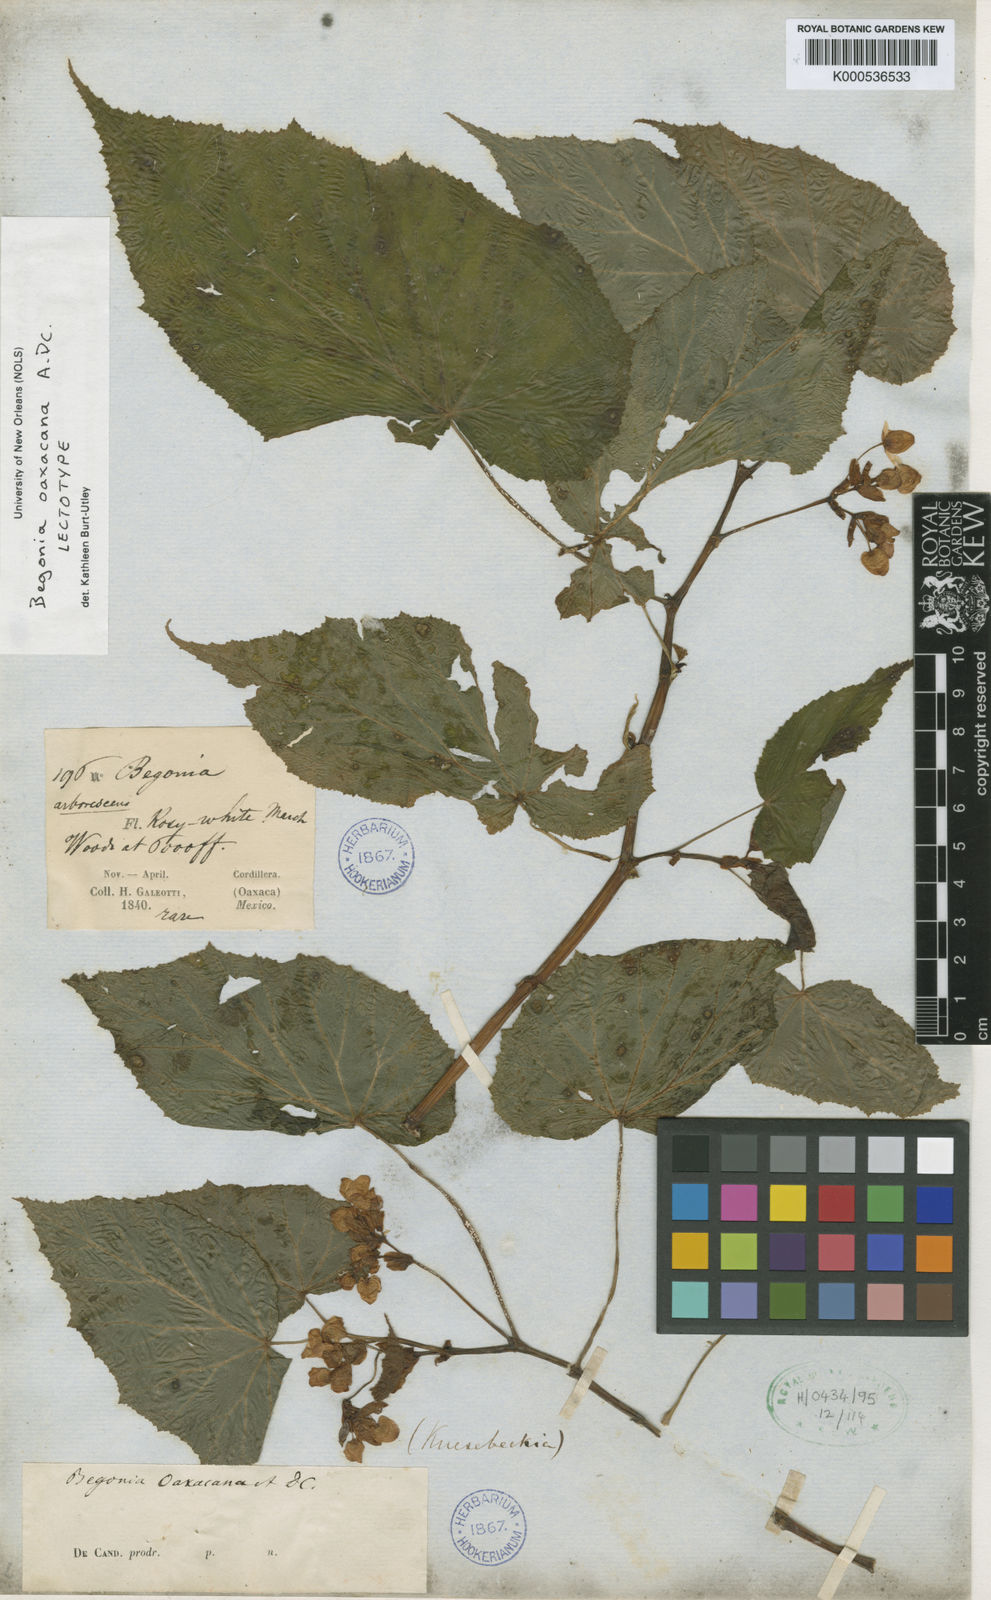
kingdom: Plantae
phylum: Tracheophyta
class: Magnoliopsida
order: Cucurbitales
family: Begoniaceae
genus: Begonia
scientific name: Begonia oaxacana
